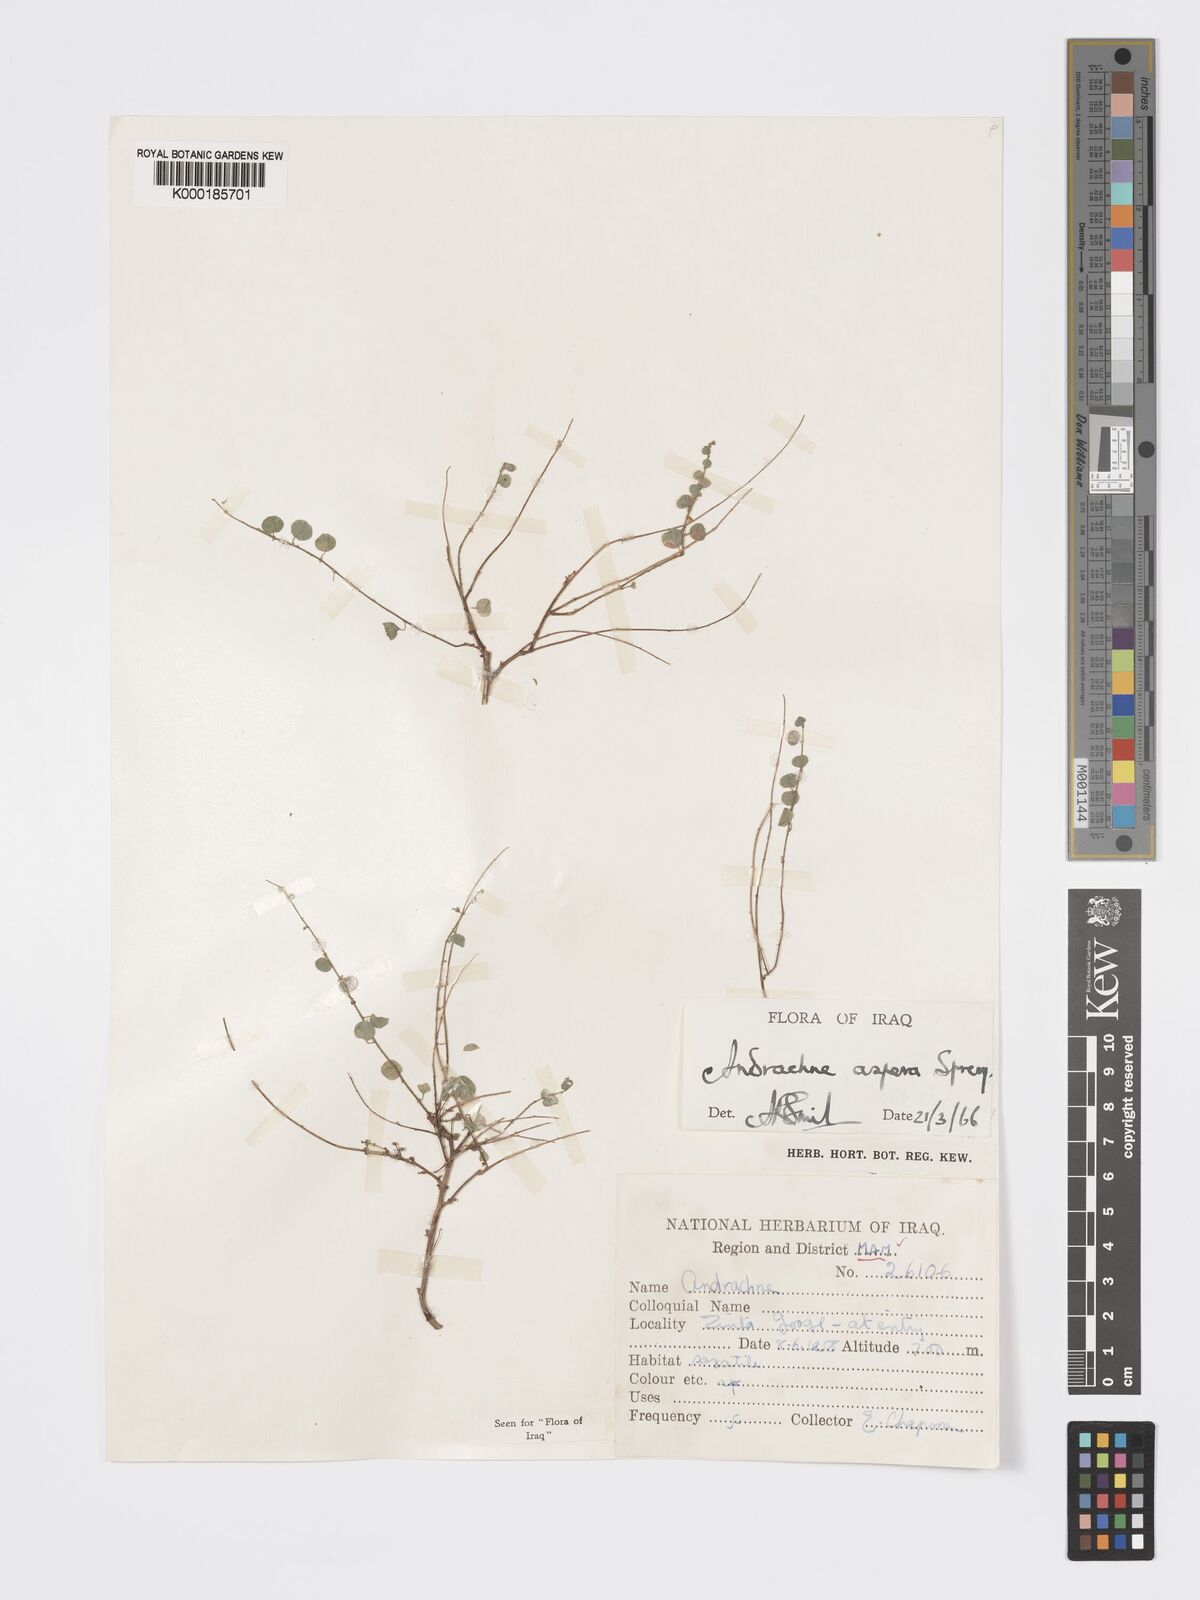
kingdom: Plantae
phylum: Tracheophyta
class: Magnoliopsida
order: Malpighiales
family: Phyllanthaceae
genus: Andrachne
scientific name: Andrachne aspera
